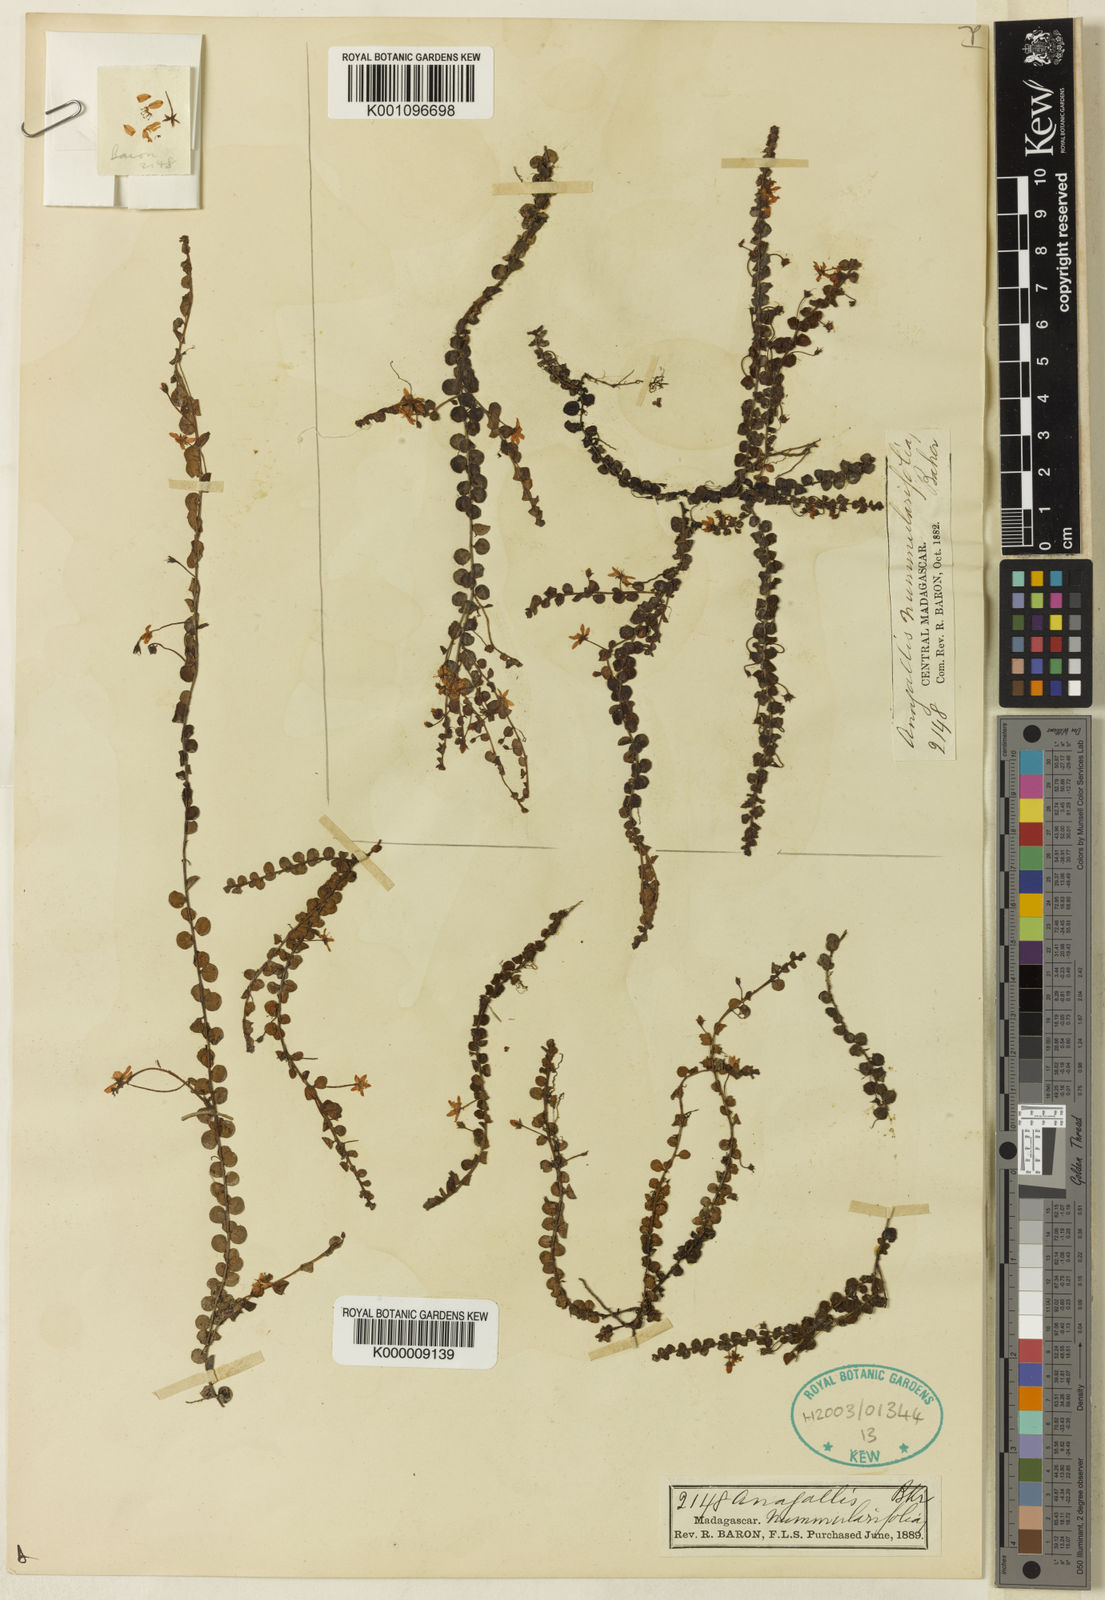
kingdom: Plantae
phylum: Tracheophyta
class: Magnoliopsida
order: Ericales
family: Primulaceae
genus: Lysimachia
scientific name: Lysimachia nummulariifolia
